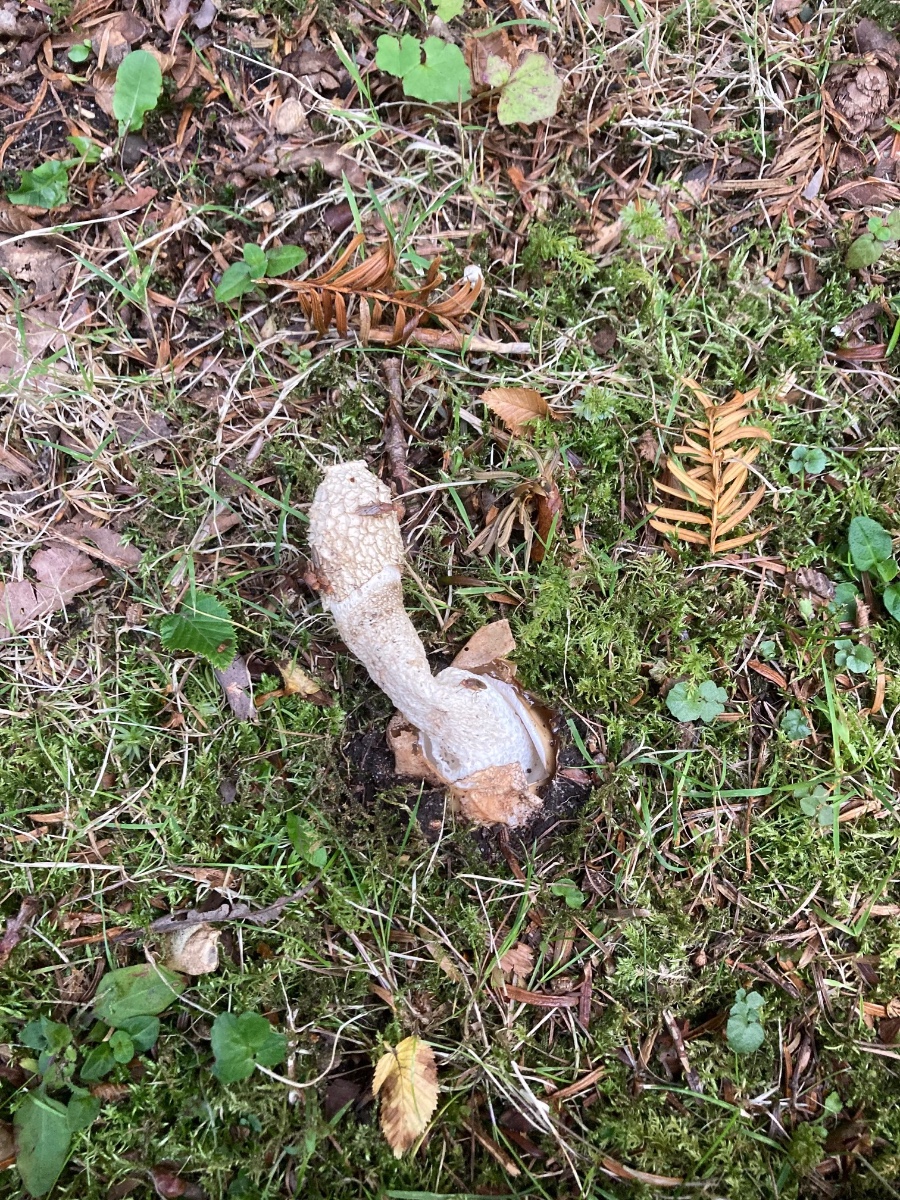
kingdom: Fungi
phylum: Basidiomycota
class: Agaricomycetes
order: Phallales
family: Phallaceae
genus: Phallus
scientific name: Phallus impudicus
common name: almindelig stinksvamp
